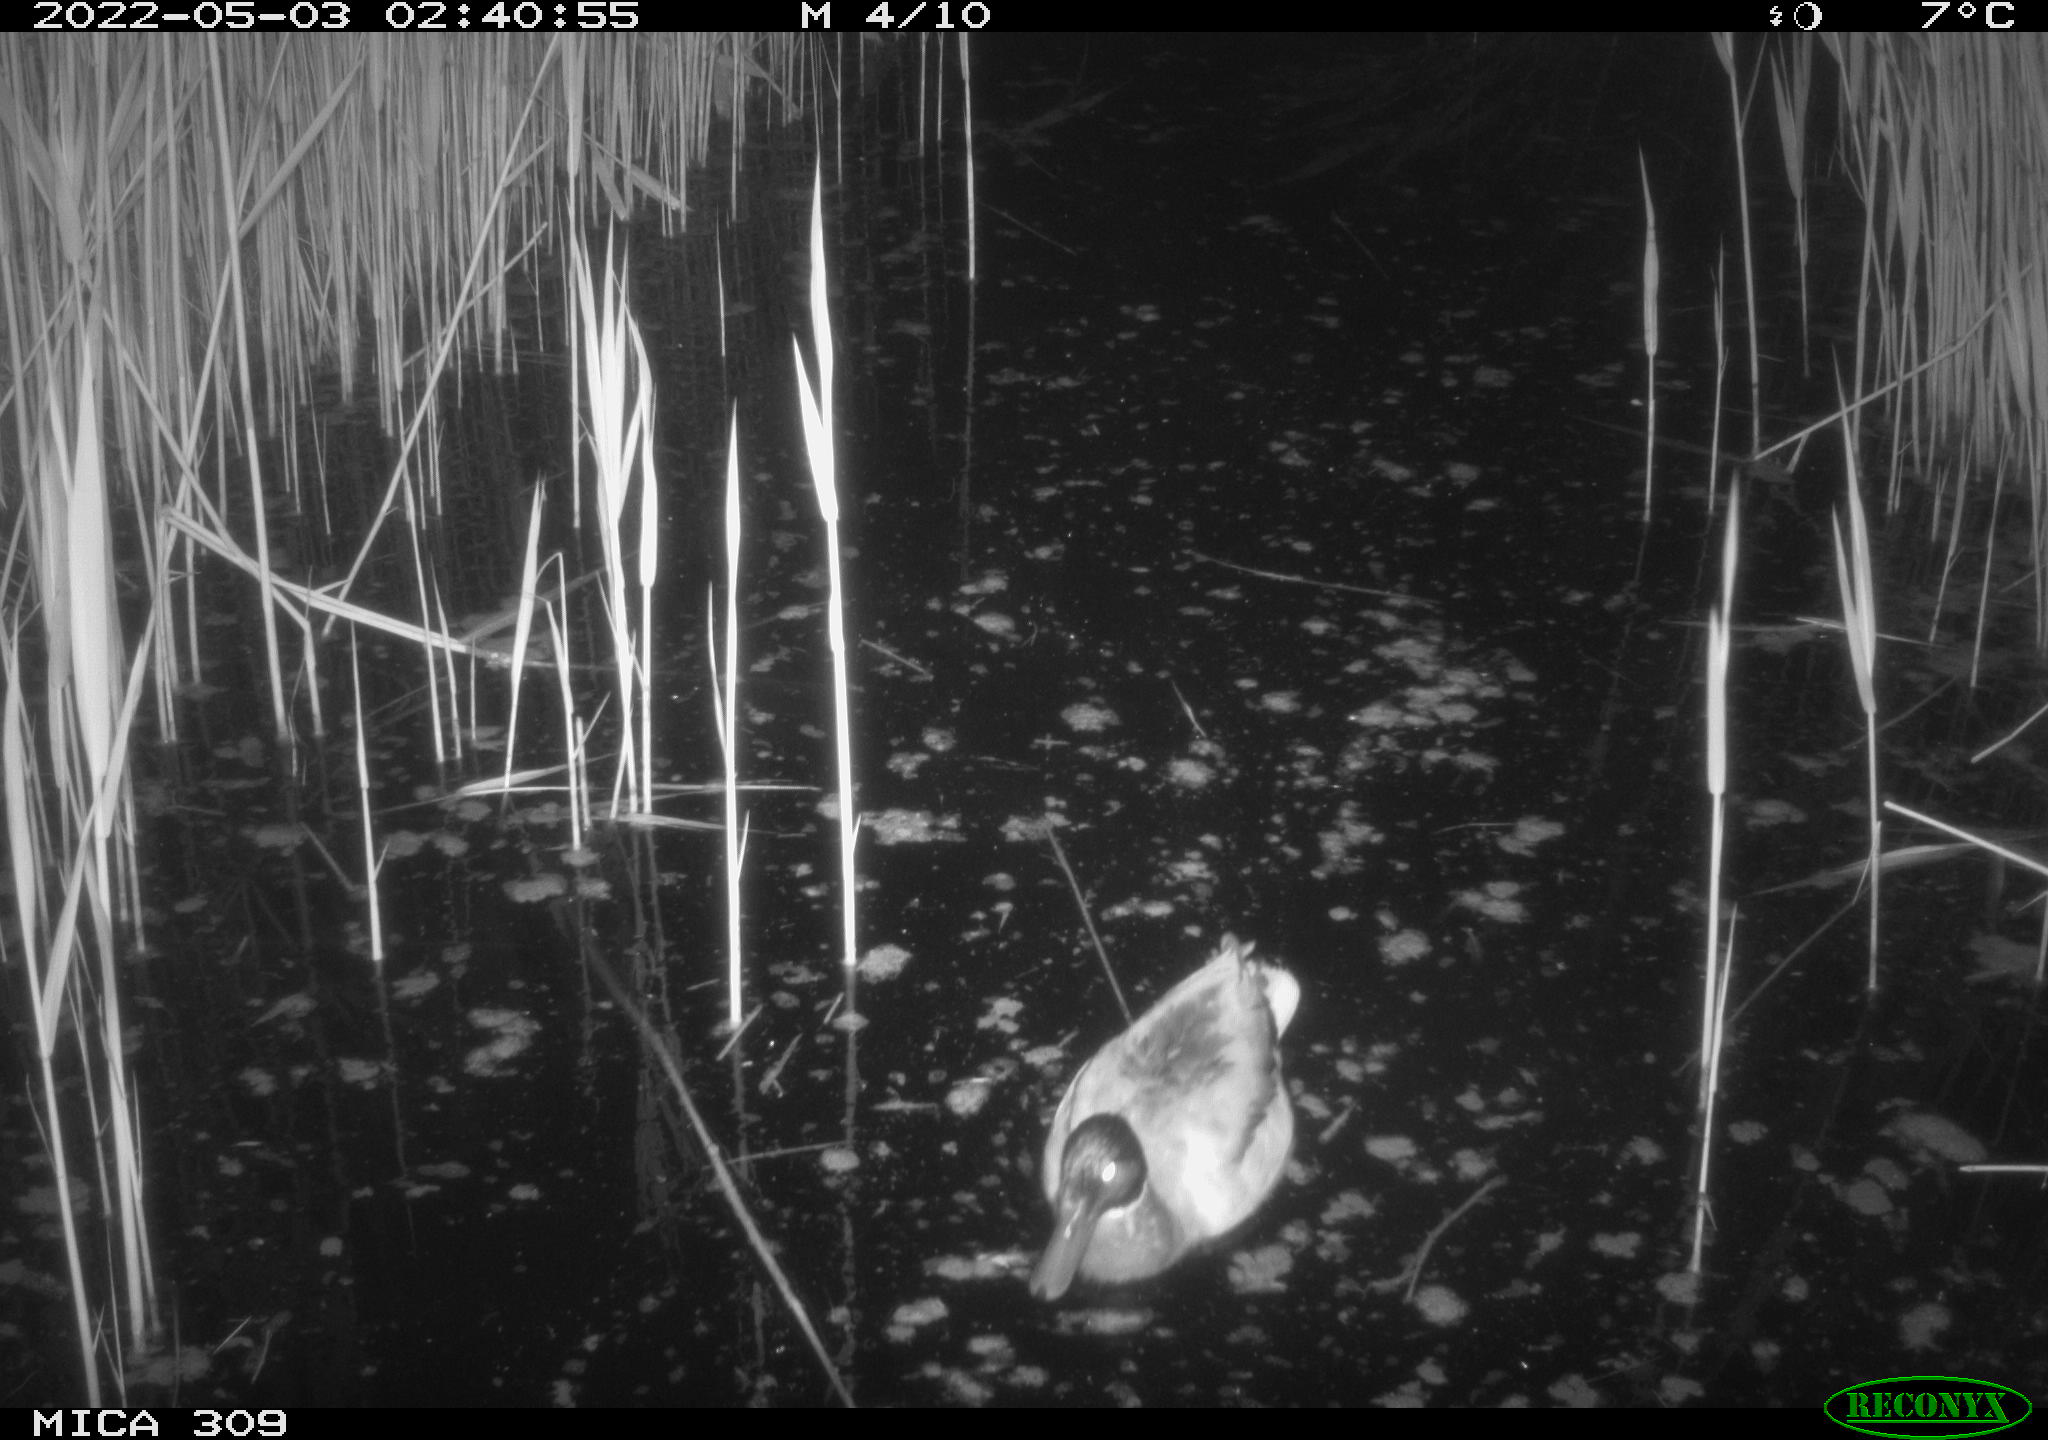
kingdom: Animalia
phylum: Chordata
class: Aves
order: Gruiformes
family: Rallidae
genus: Fulica
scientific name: Fulica atra
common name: Eurasian coot
